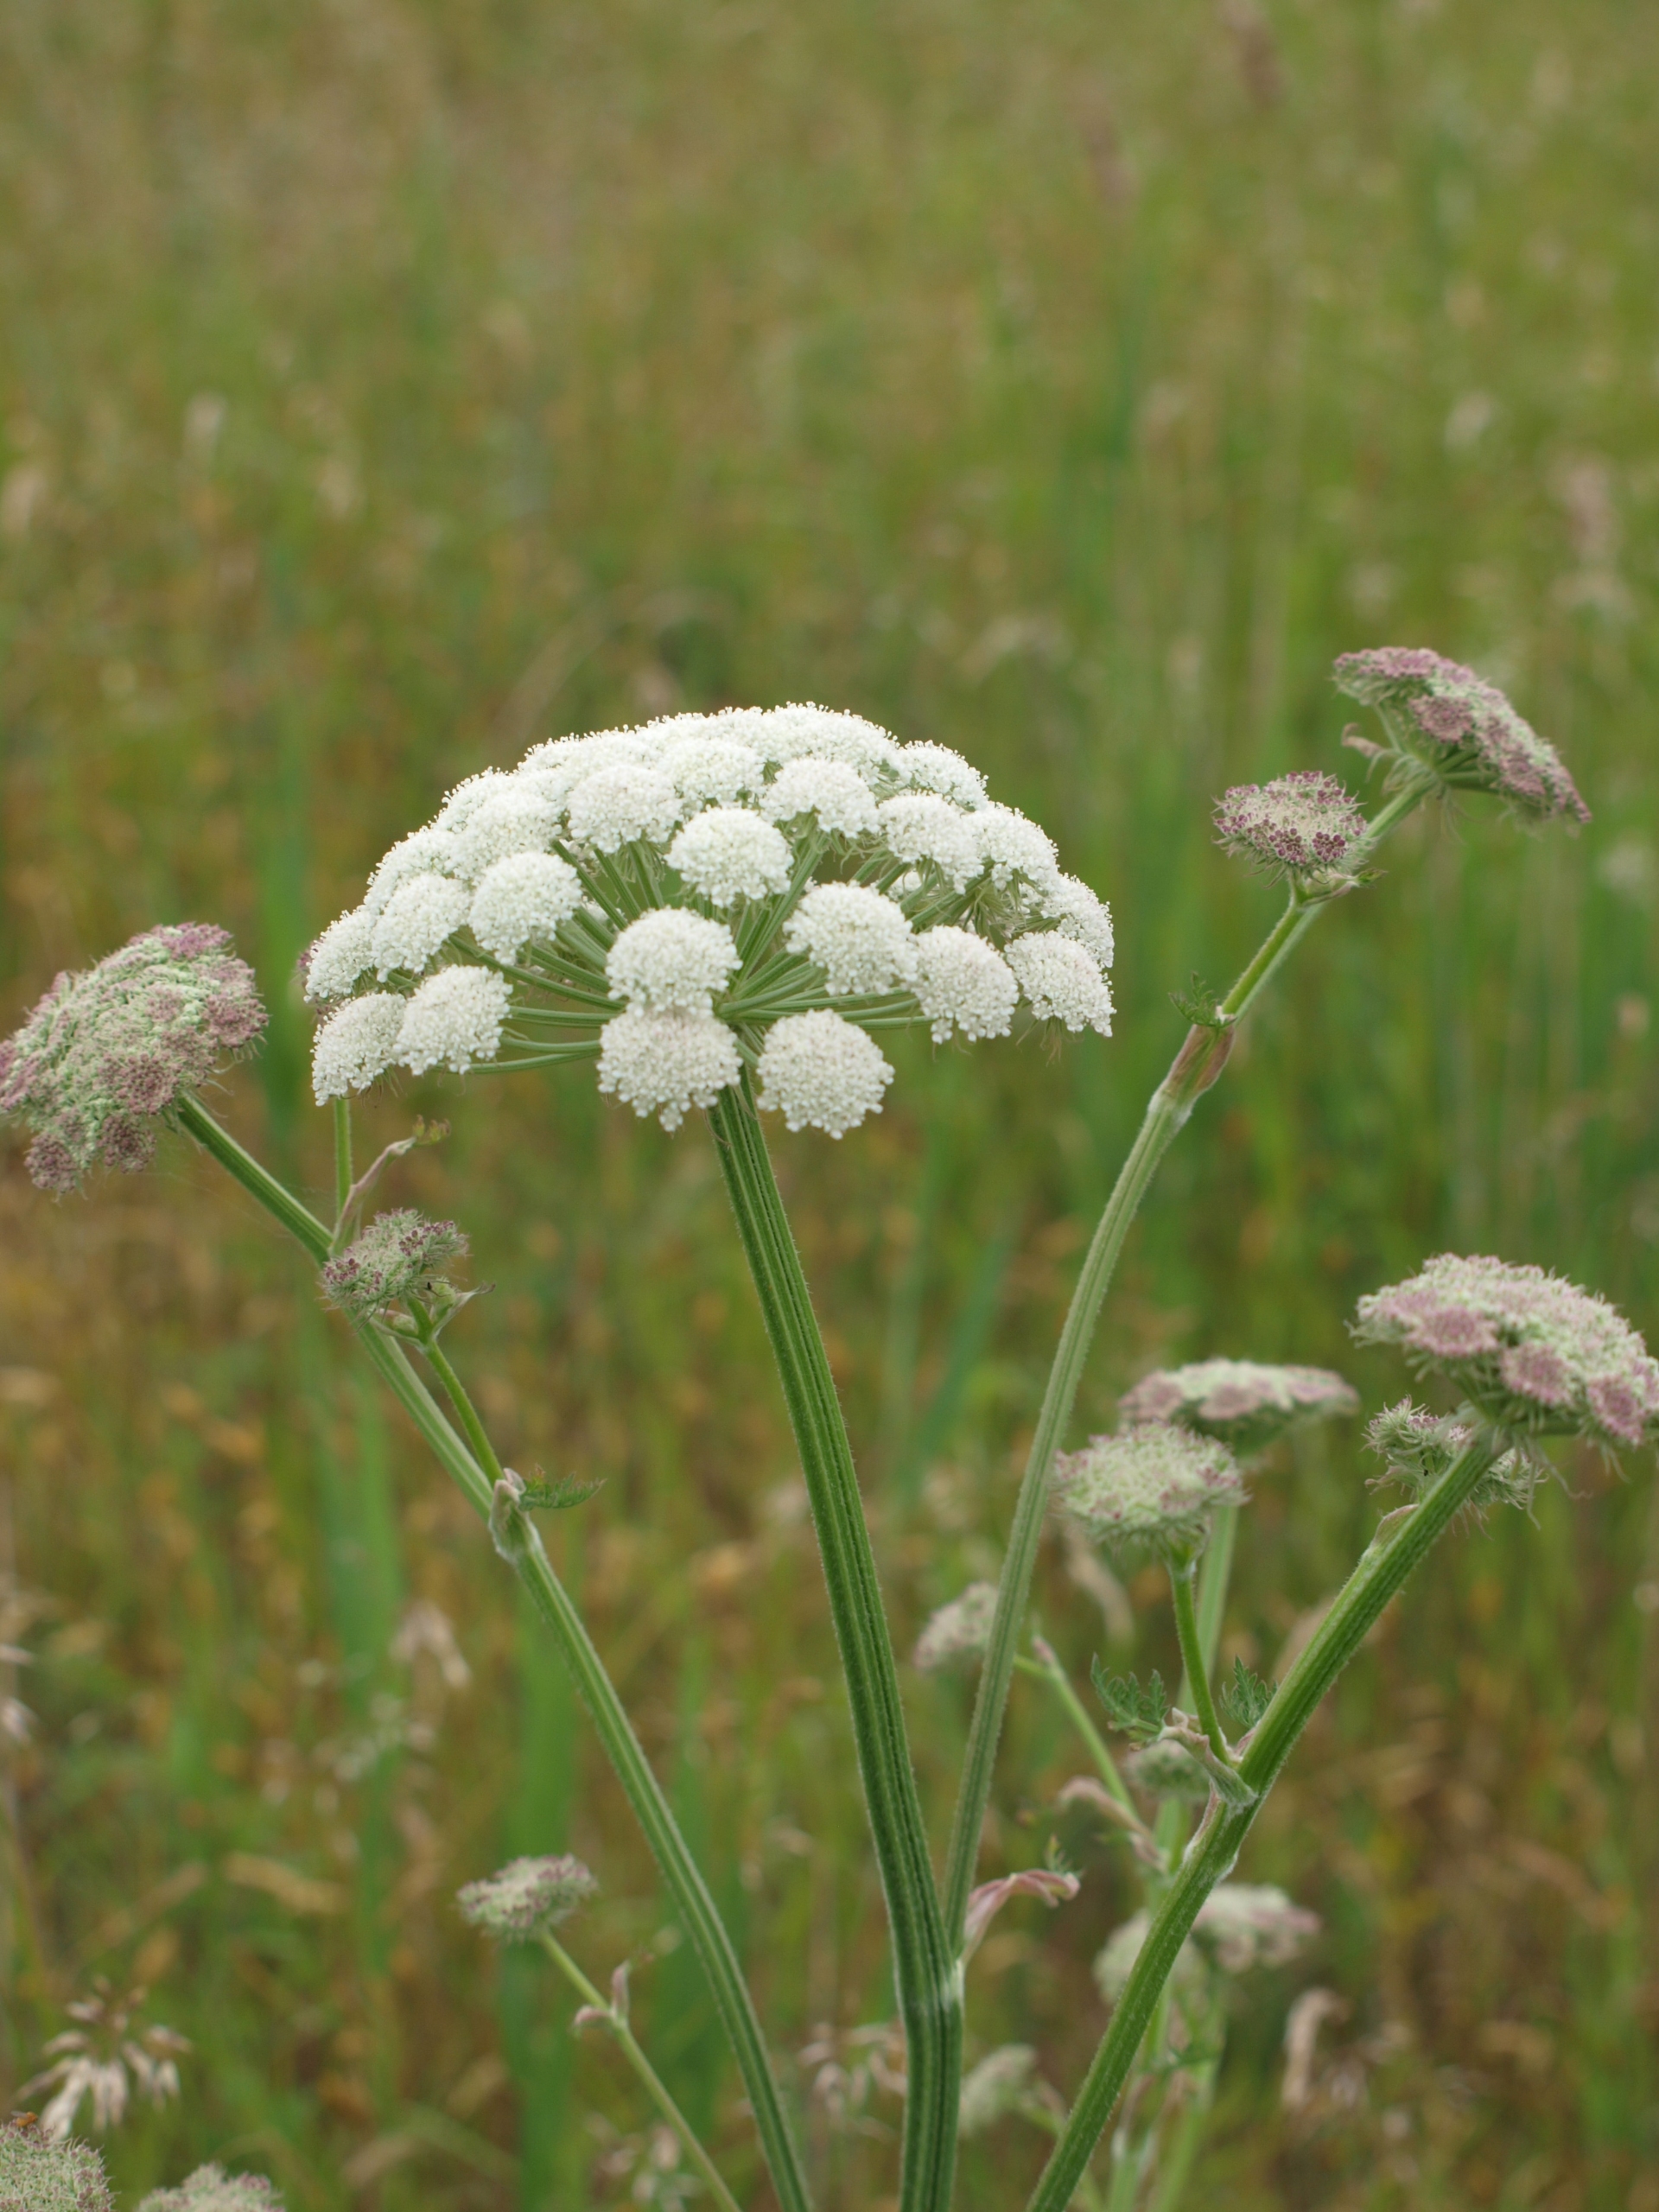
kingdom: Plantae
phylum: Tracheophyta
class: Magnoliopsida
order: Apiales
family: Apiaceae
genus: Seseli
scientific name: Seseli libanotis
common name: Hjorterod
